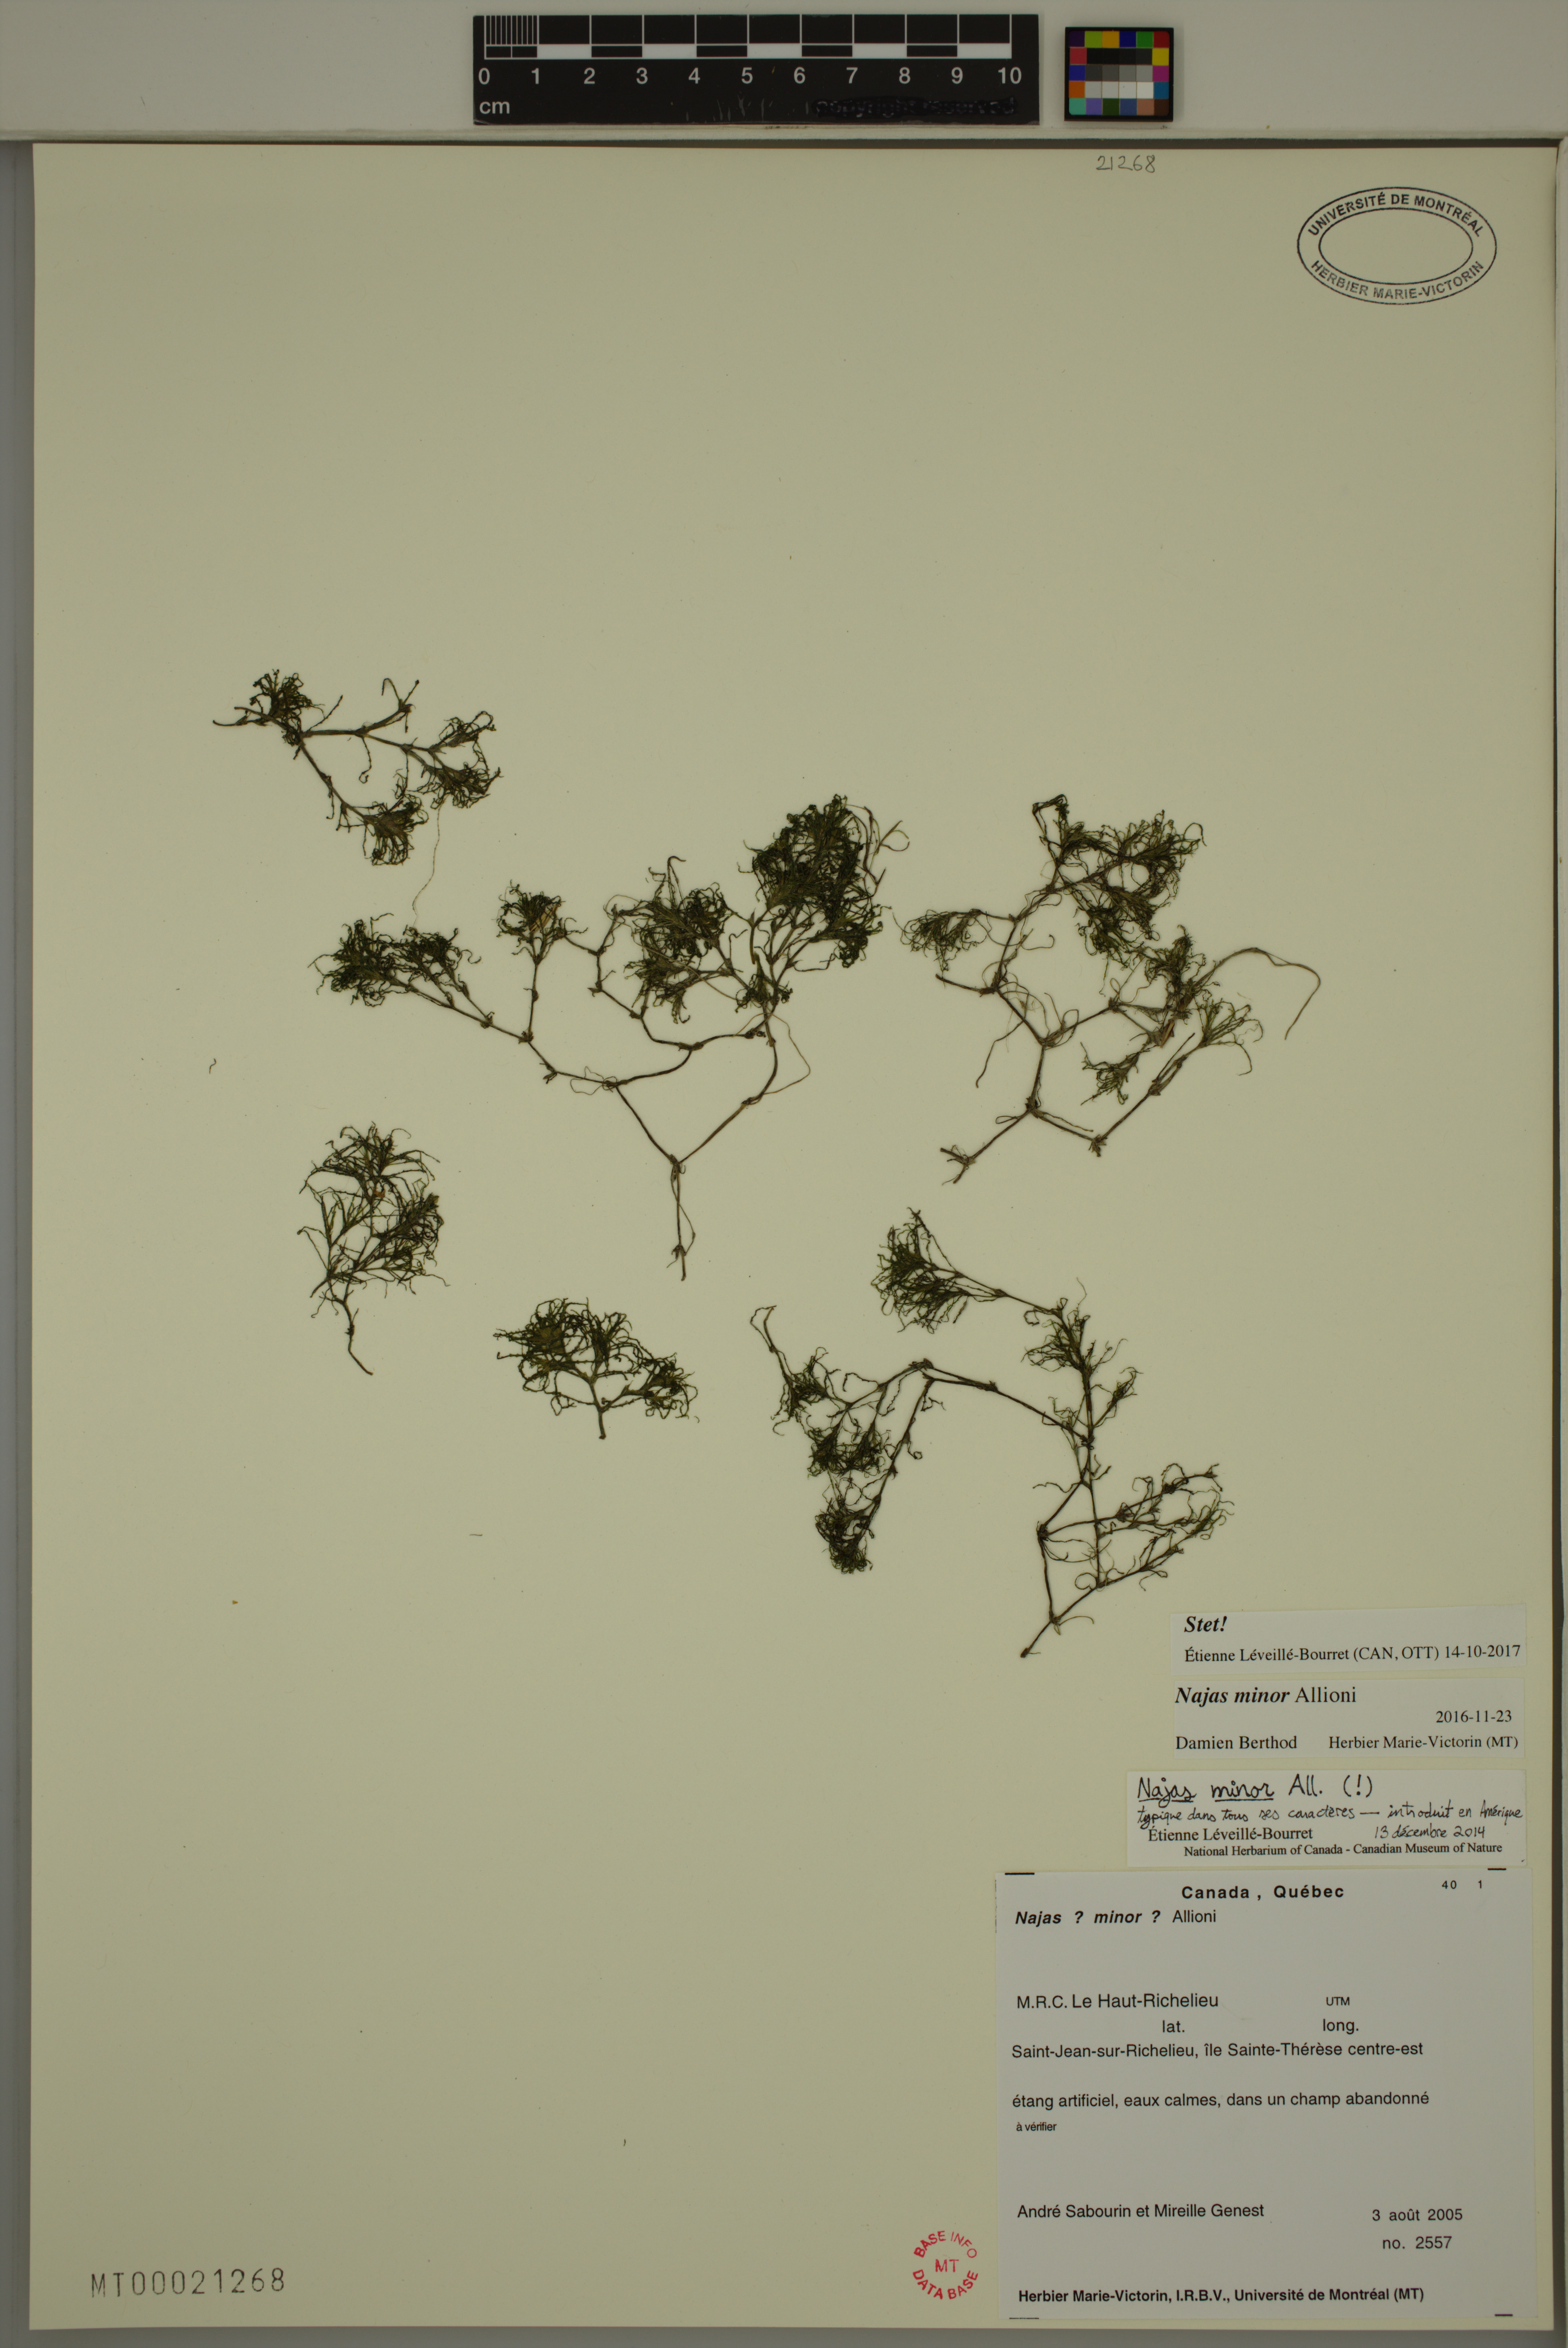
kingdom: Plantae
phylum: Tracheophyta
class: Liliopsida
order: Alismatales
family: Hydrocharitaceae
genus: Najas
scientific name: Najas minor
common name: Brittle naiad
